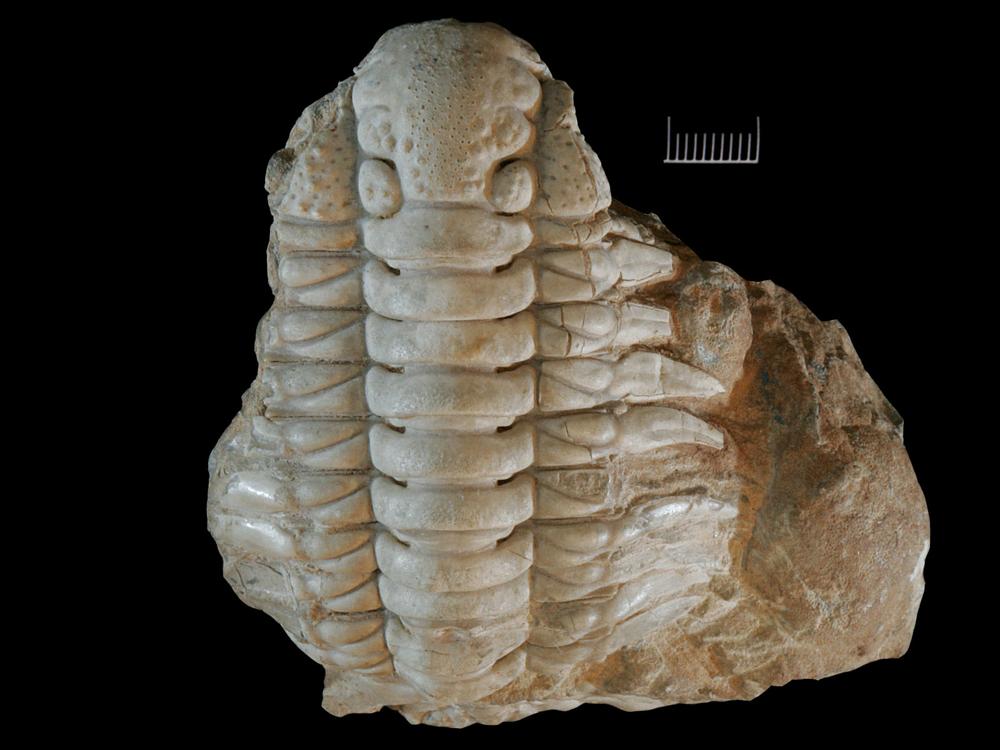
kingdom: Animalia
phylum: Arthropoda
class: Trilobita
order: Phacopida
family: Cheiruridae
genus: Paraceraurus
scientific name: Paraceraurus aculeatus
